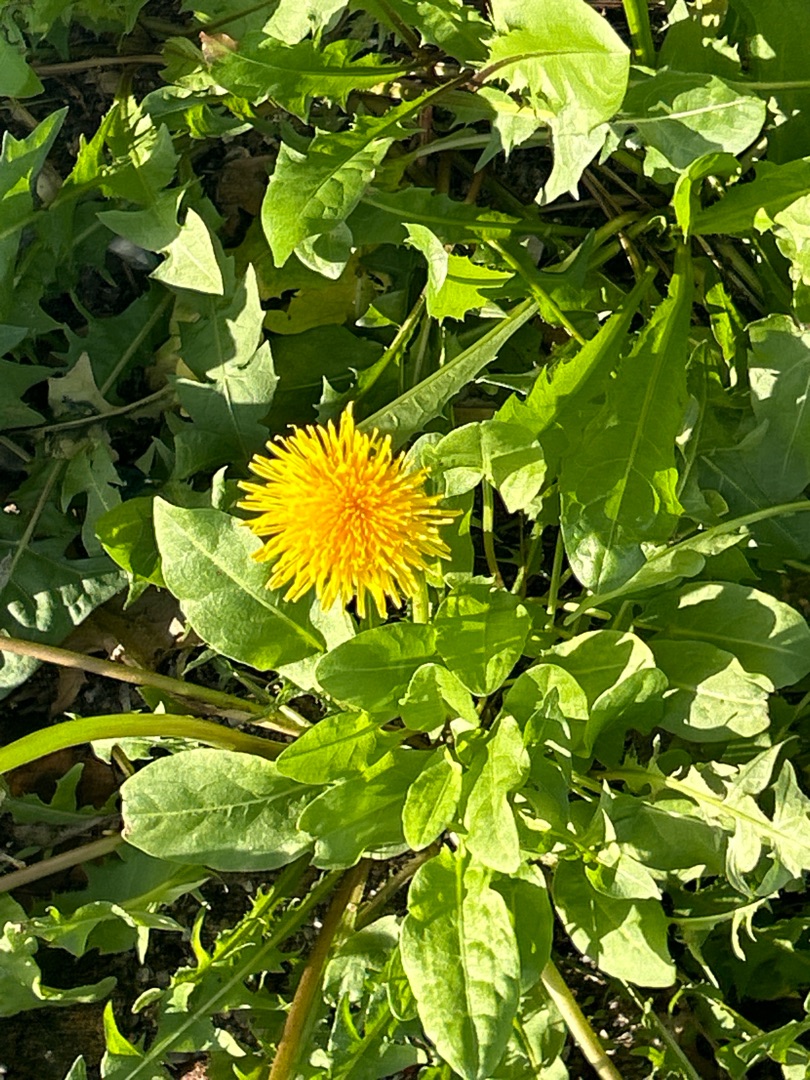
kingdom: Plantae
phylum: Tracheophyta
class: Magnoliopsida
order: Asterales
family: Asteraceae
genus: Taraxacum
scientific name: Taraxacum
